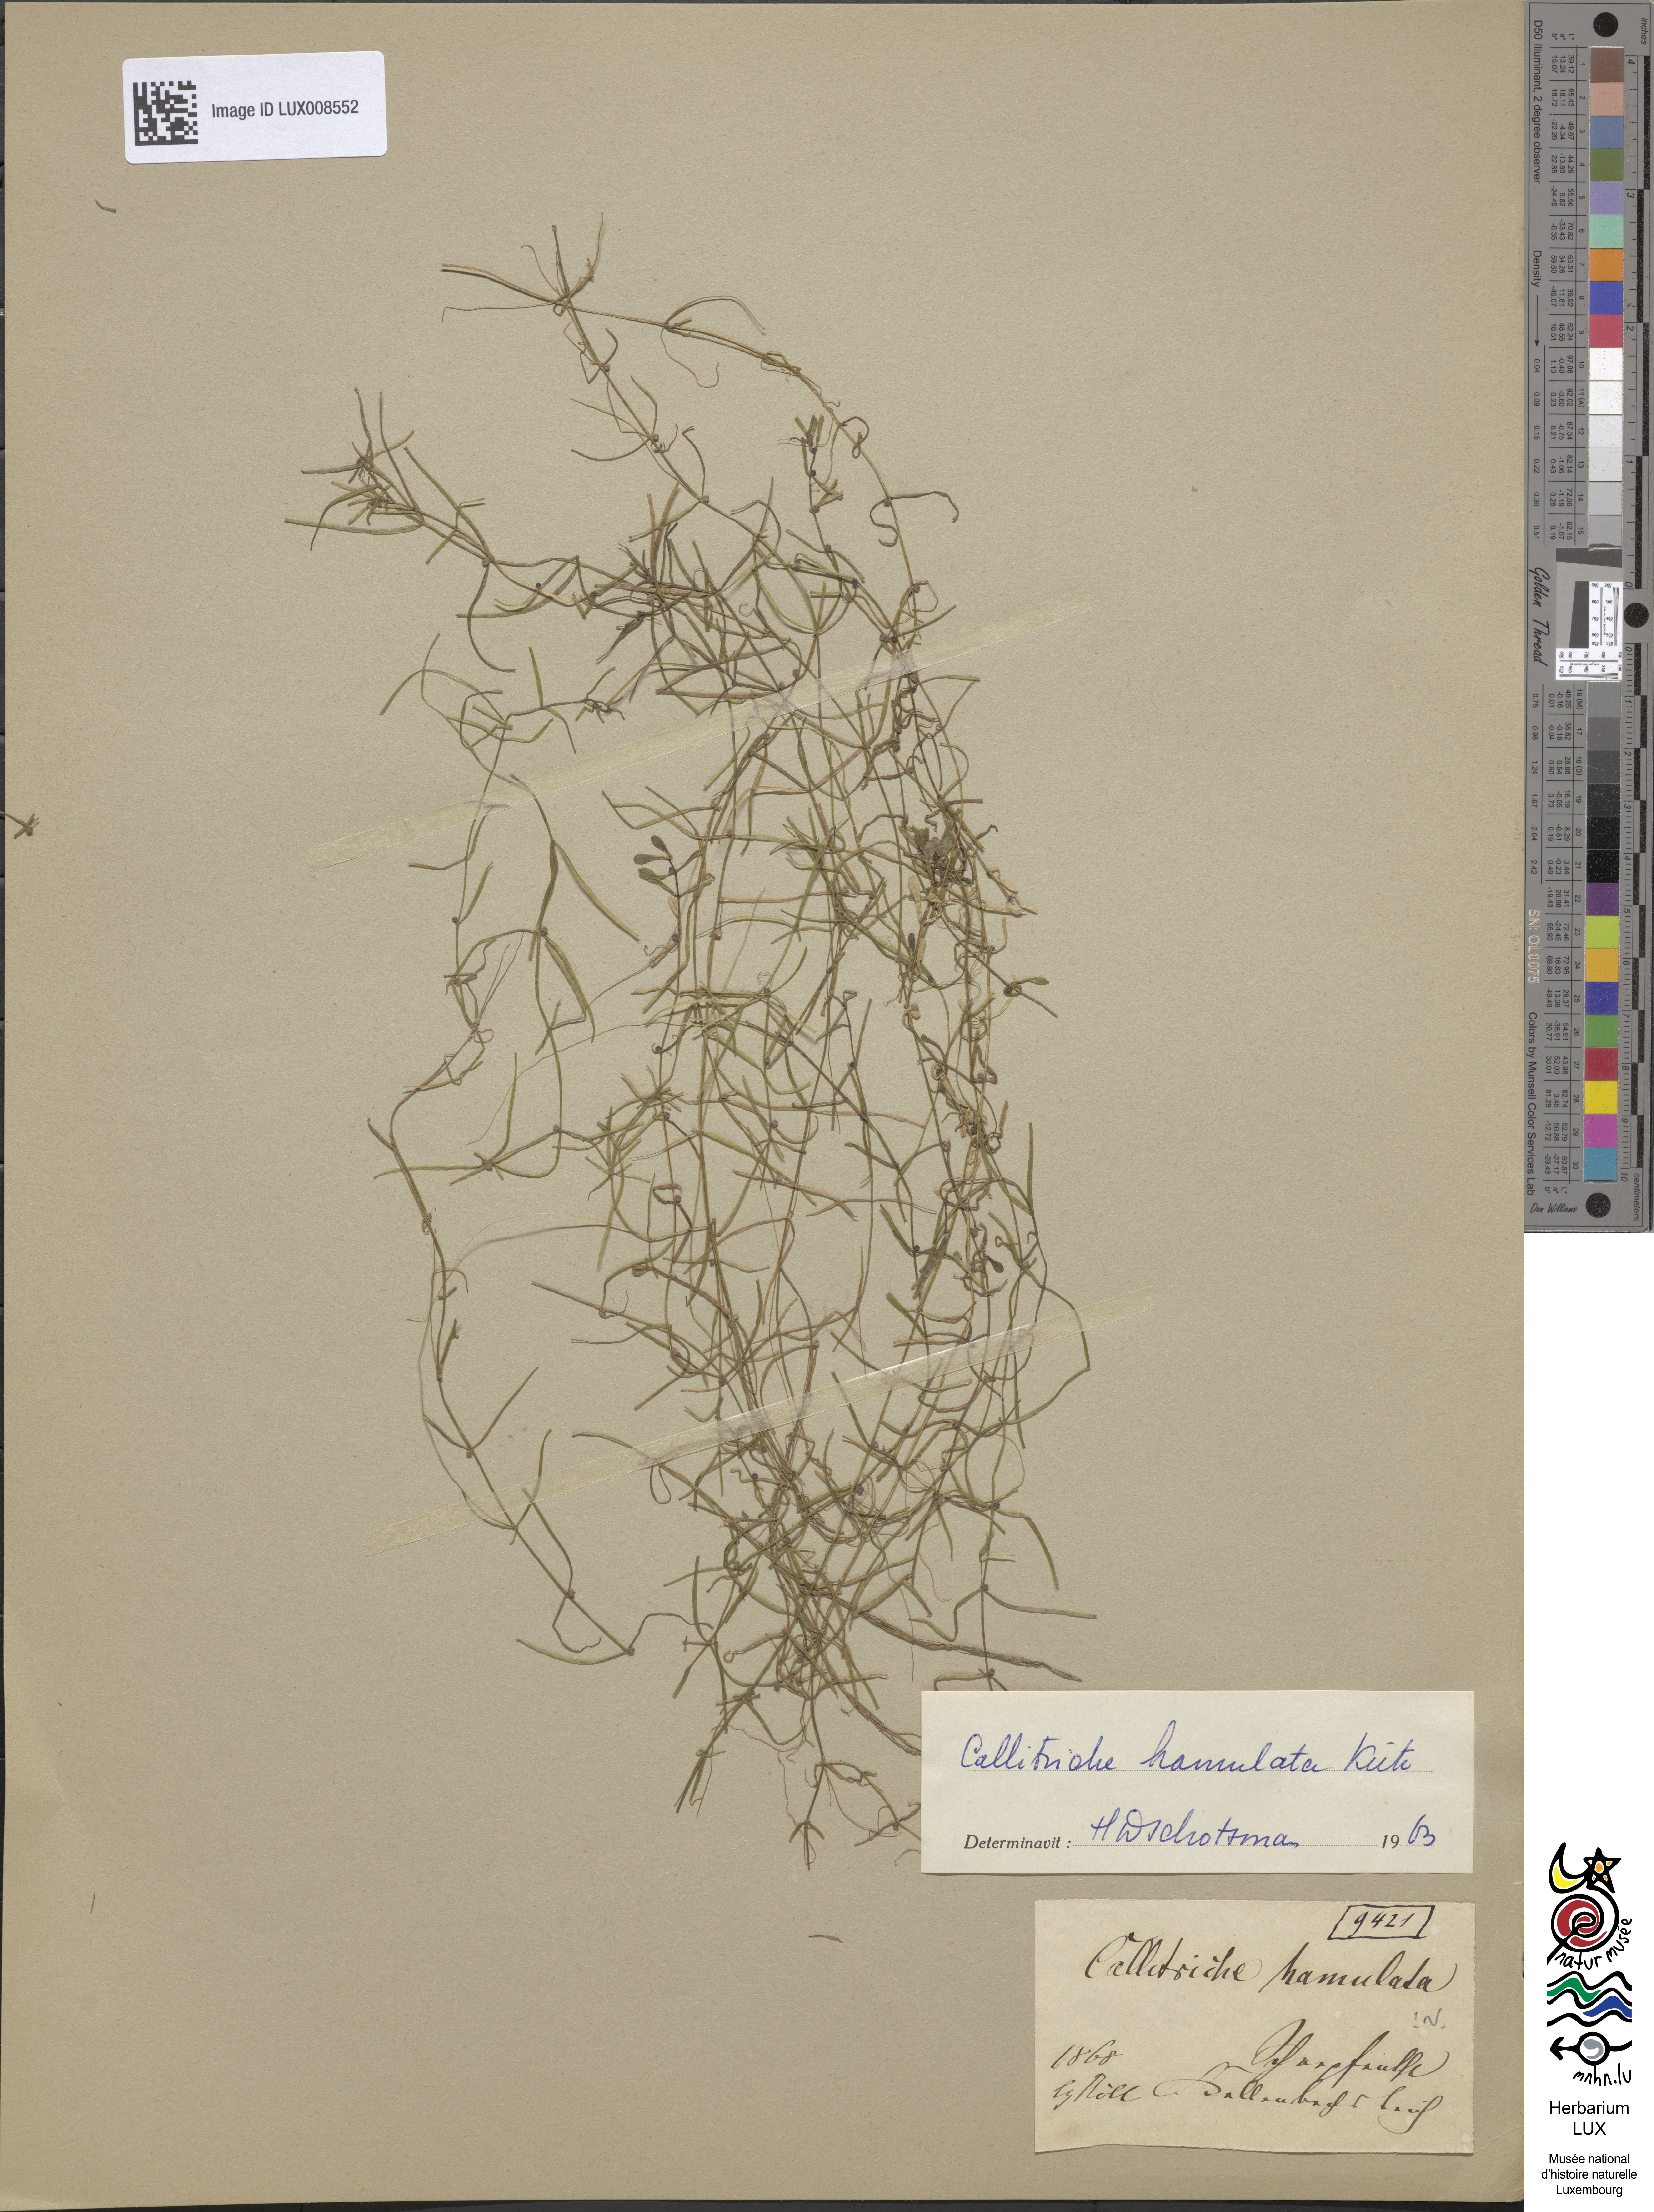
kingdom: Plantae
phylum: Tracheophyta
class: Magnoliopsida
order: Lamiales
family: Plantaginaceae
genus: Callitriche
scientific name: Callitriche hamulata
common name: Intermediate water-starwort
